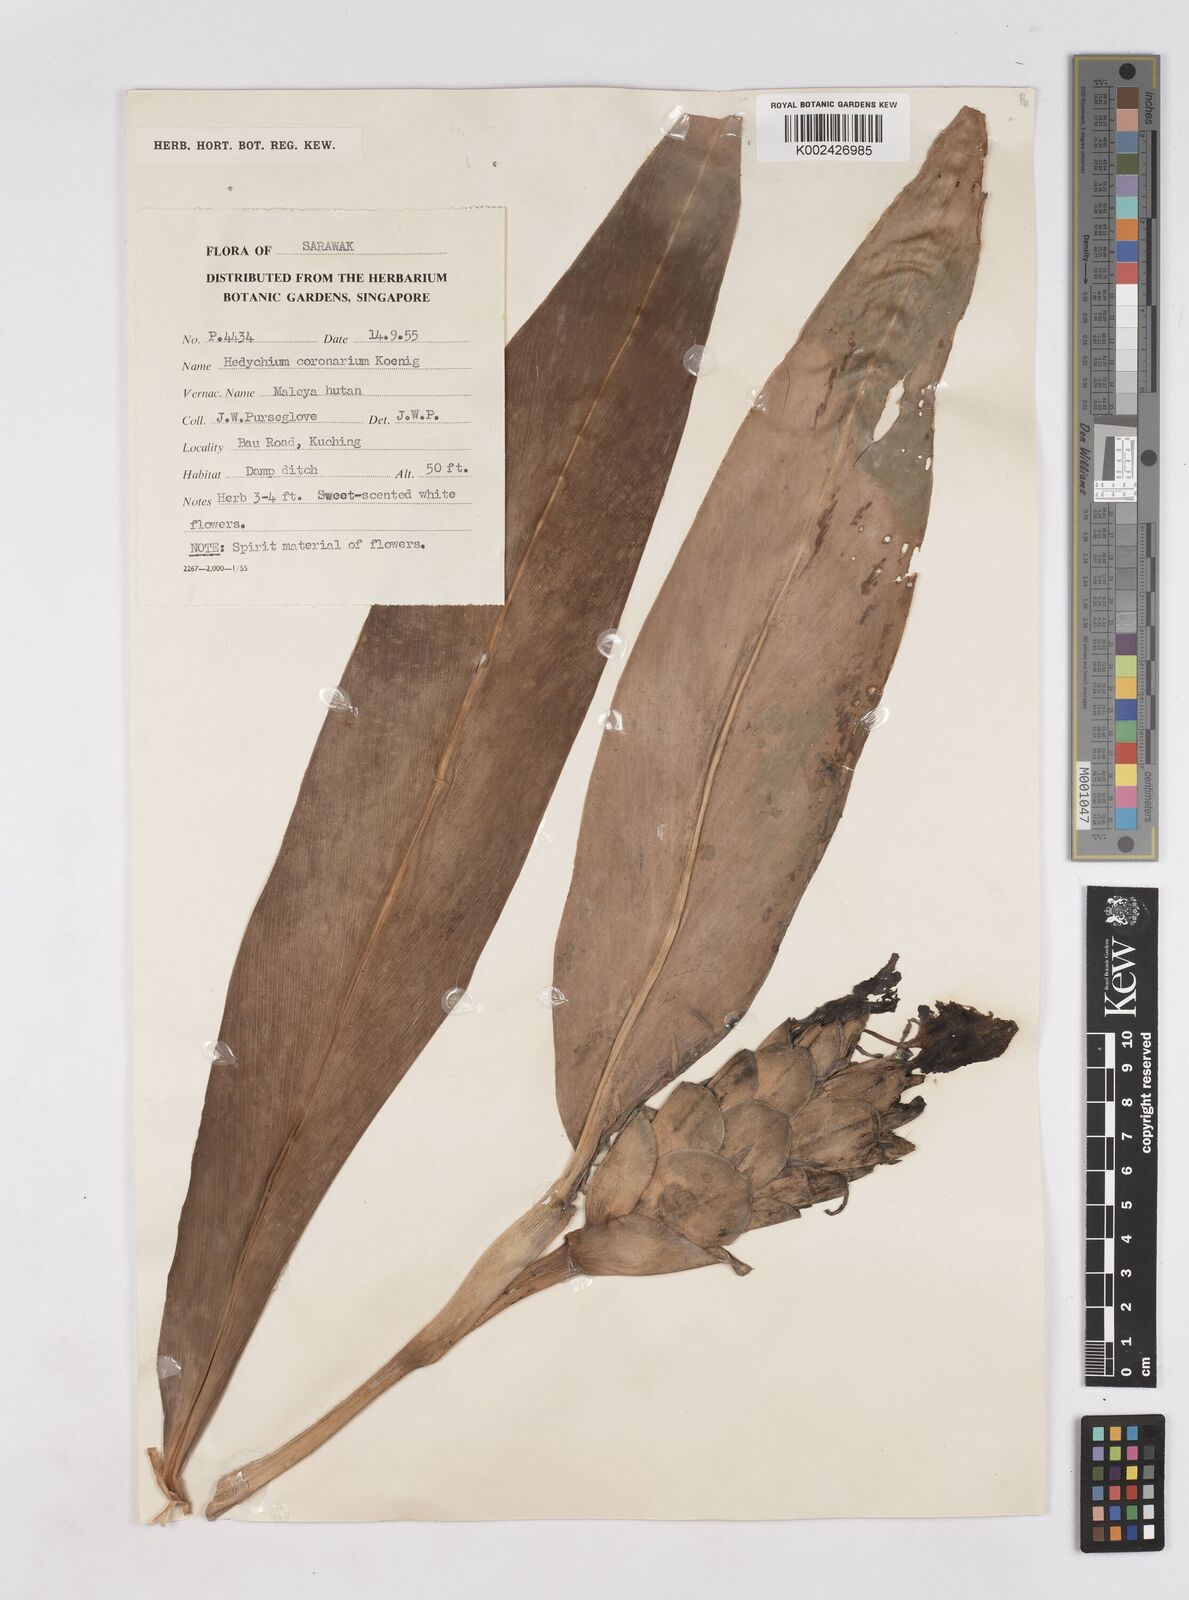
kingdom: Plantae
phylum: Tracheophyta
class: Liliopsida
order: Zingiberales
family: Zingiberaceae
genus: Hedychium
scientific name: Hedychium coronarium
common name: White garland-lily
